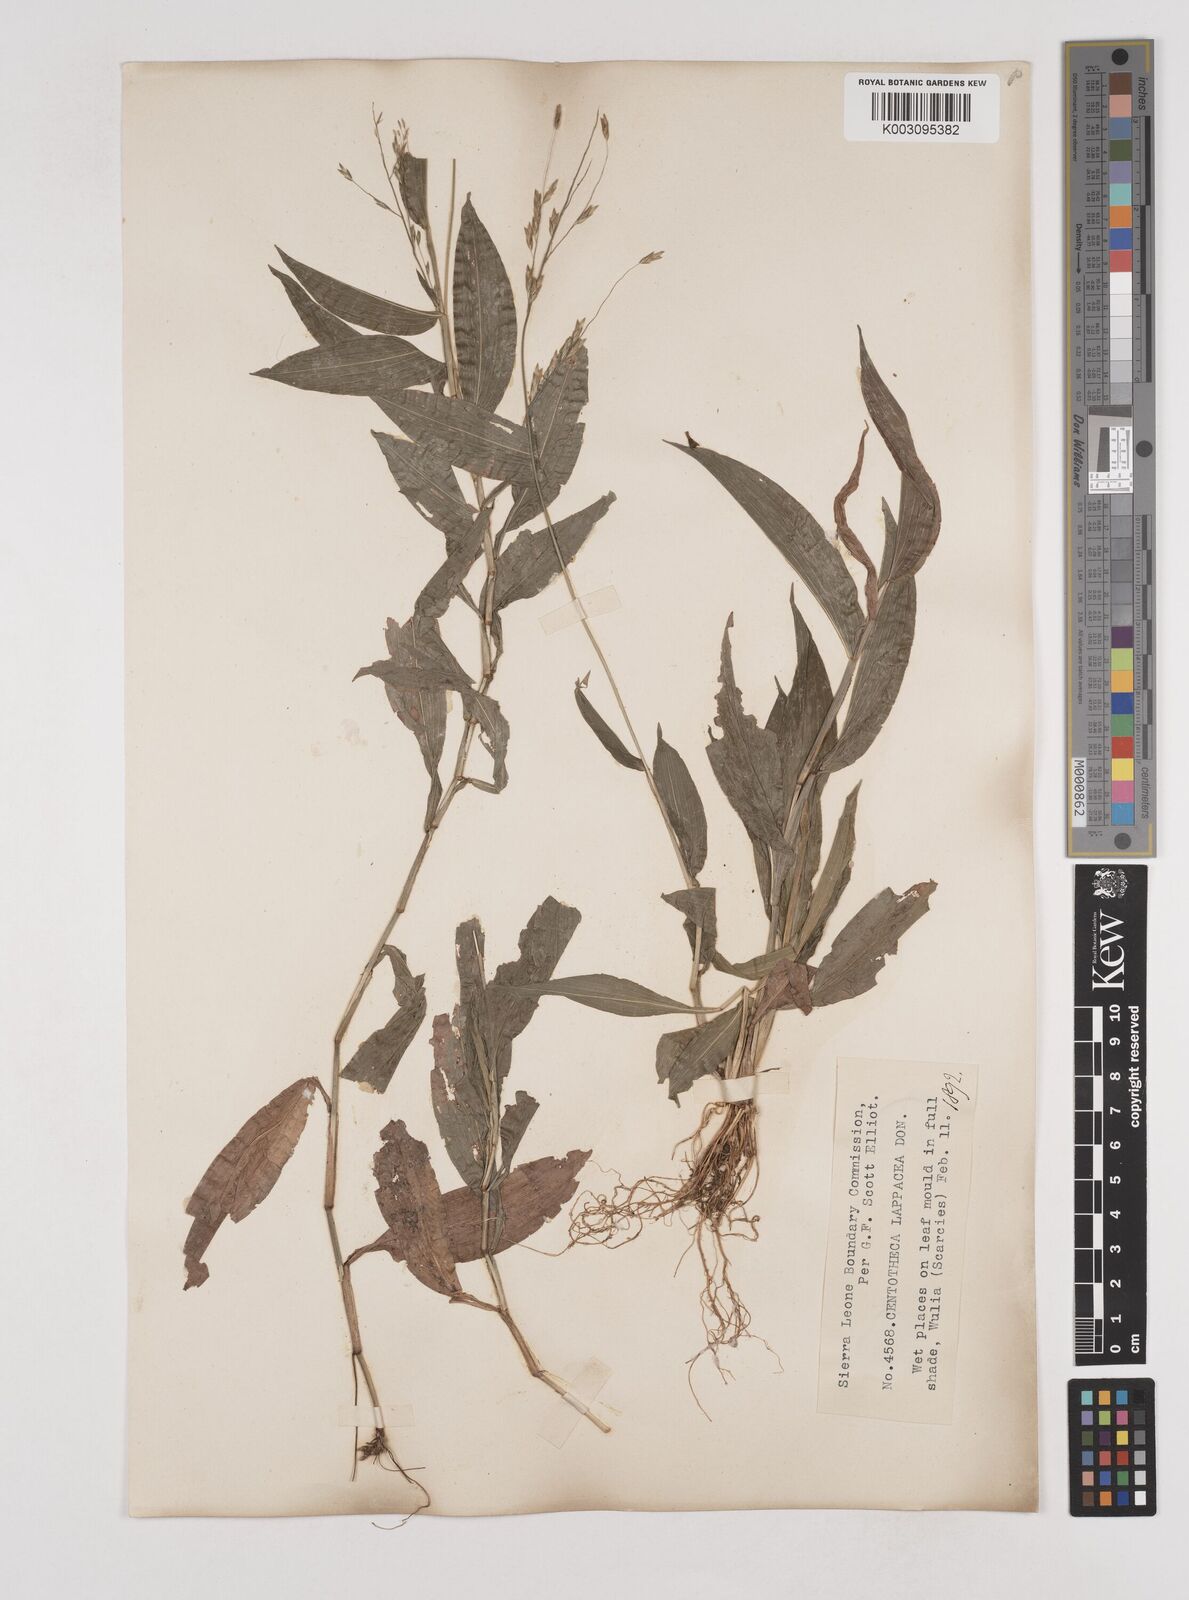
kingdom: Plantae
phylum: Tracheophyta
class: Liliopsida
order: Poales
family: Poaceae
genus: Centotheca
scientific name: Centotheca lappacea
